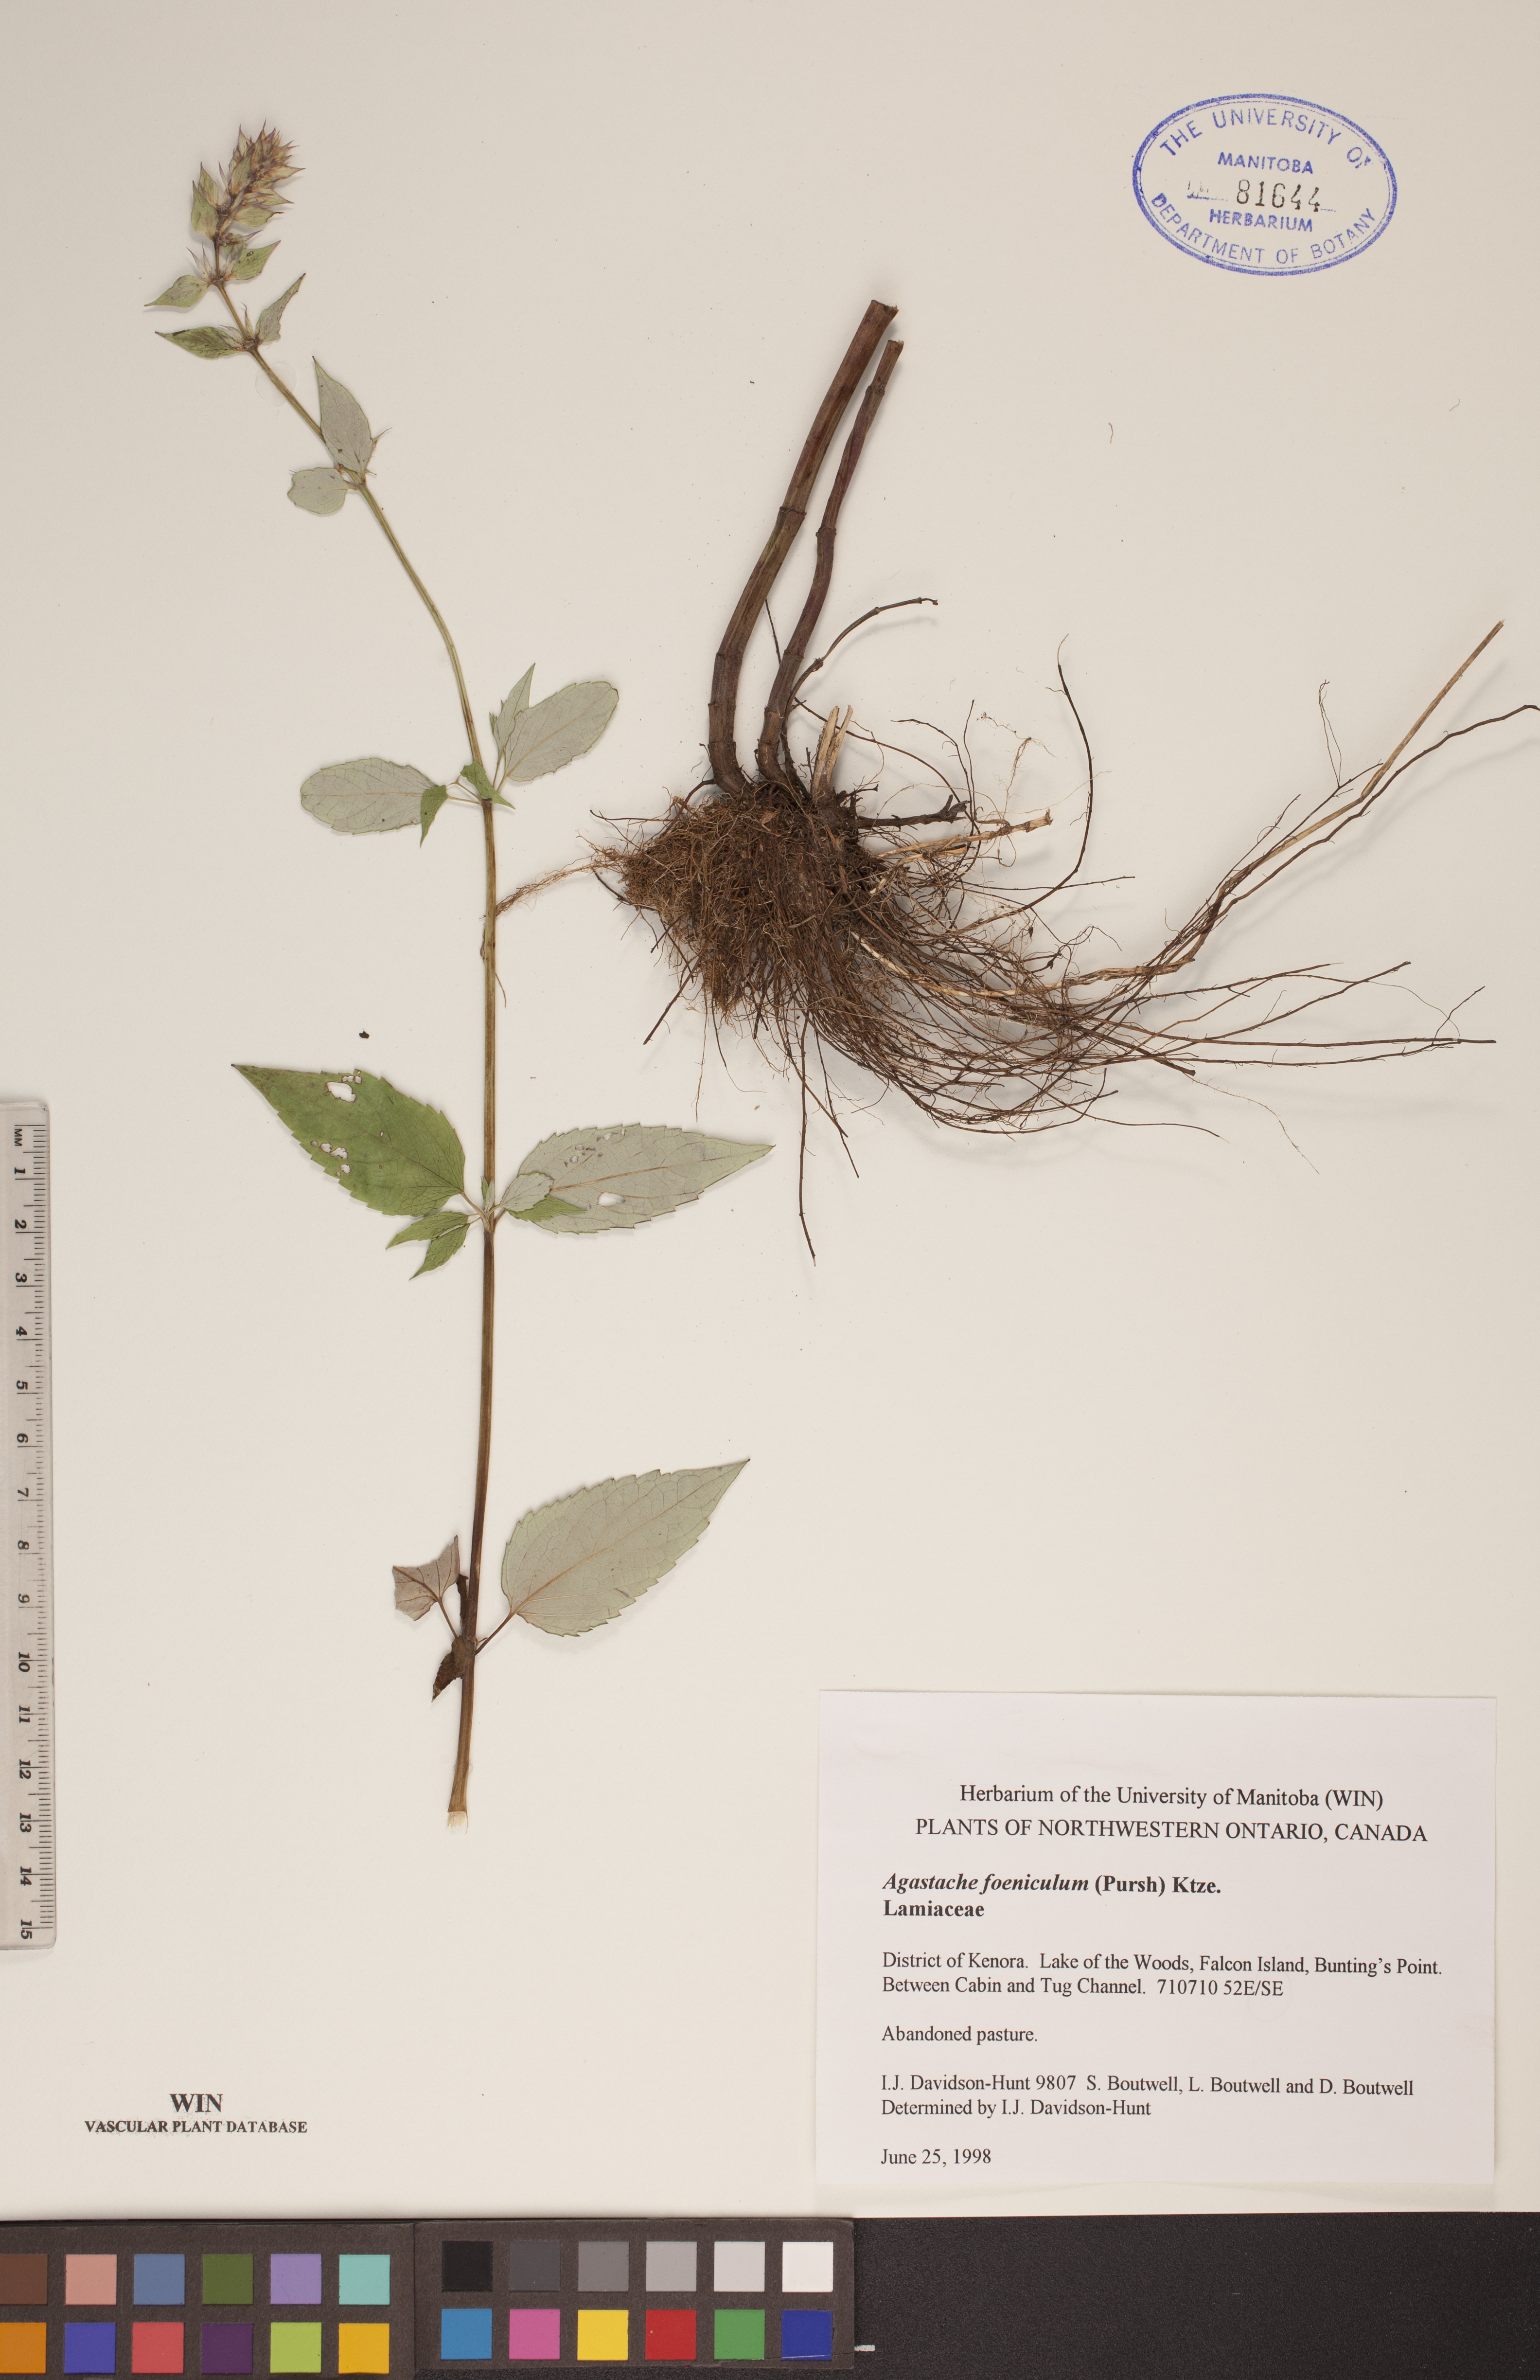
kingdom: Plantae
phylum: Tracheophyta
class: Magnoliopsida
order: Lamiales
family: Lamiaceae
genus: Agastache
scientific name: Agastache foeniculum
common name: Anise hyssop
